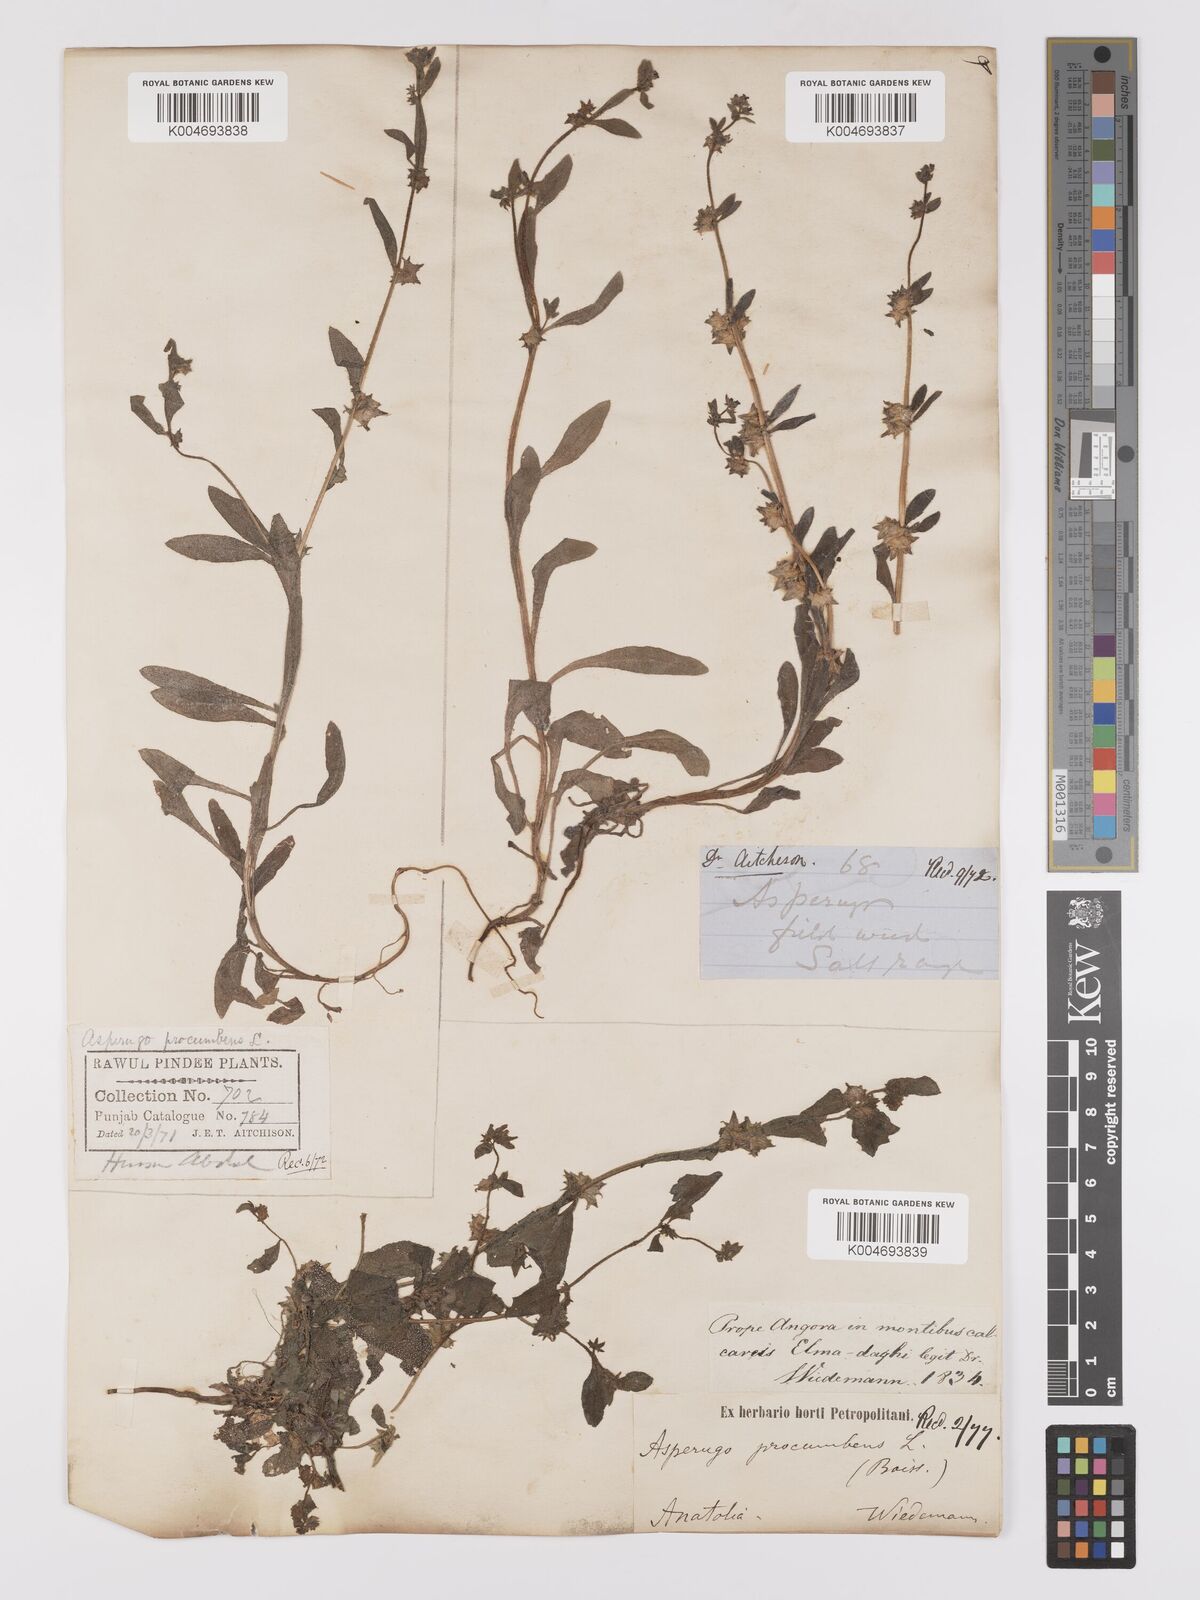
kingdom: Plantae
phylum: Tracheophyta
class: Magnoliopsida
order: Boraginales
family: Boraginaceae
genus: Asperugo
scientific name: Asperugo procumbens
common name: Madwort
